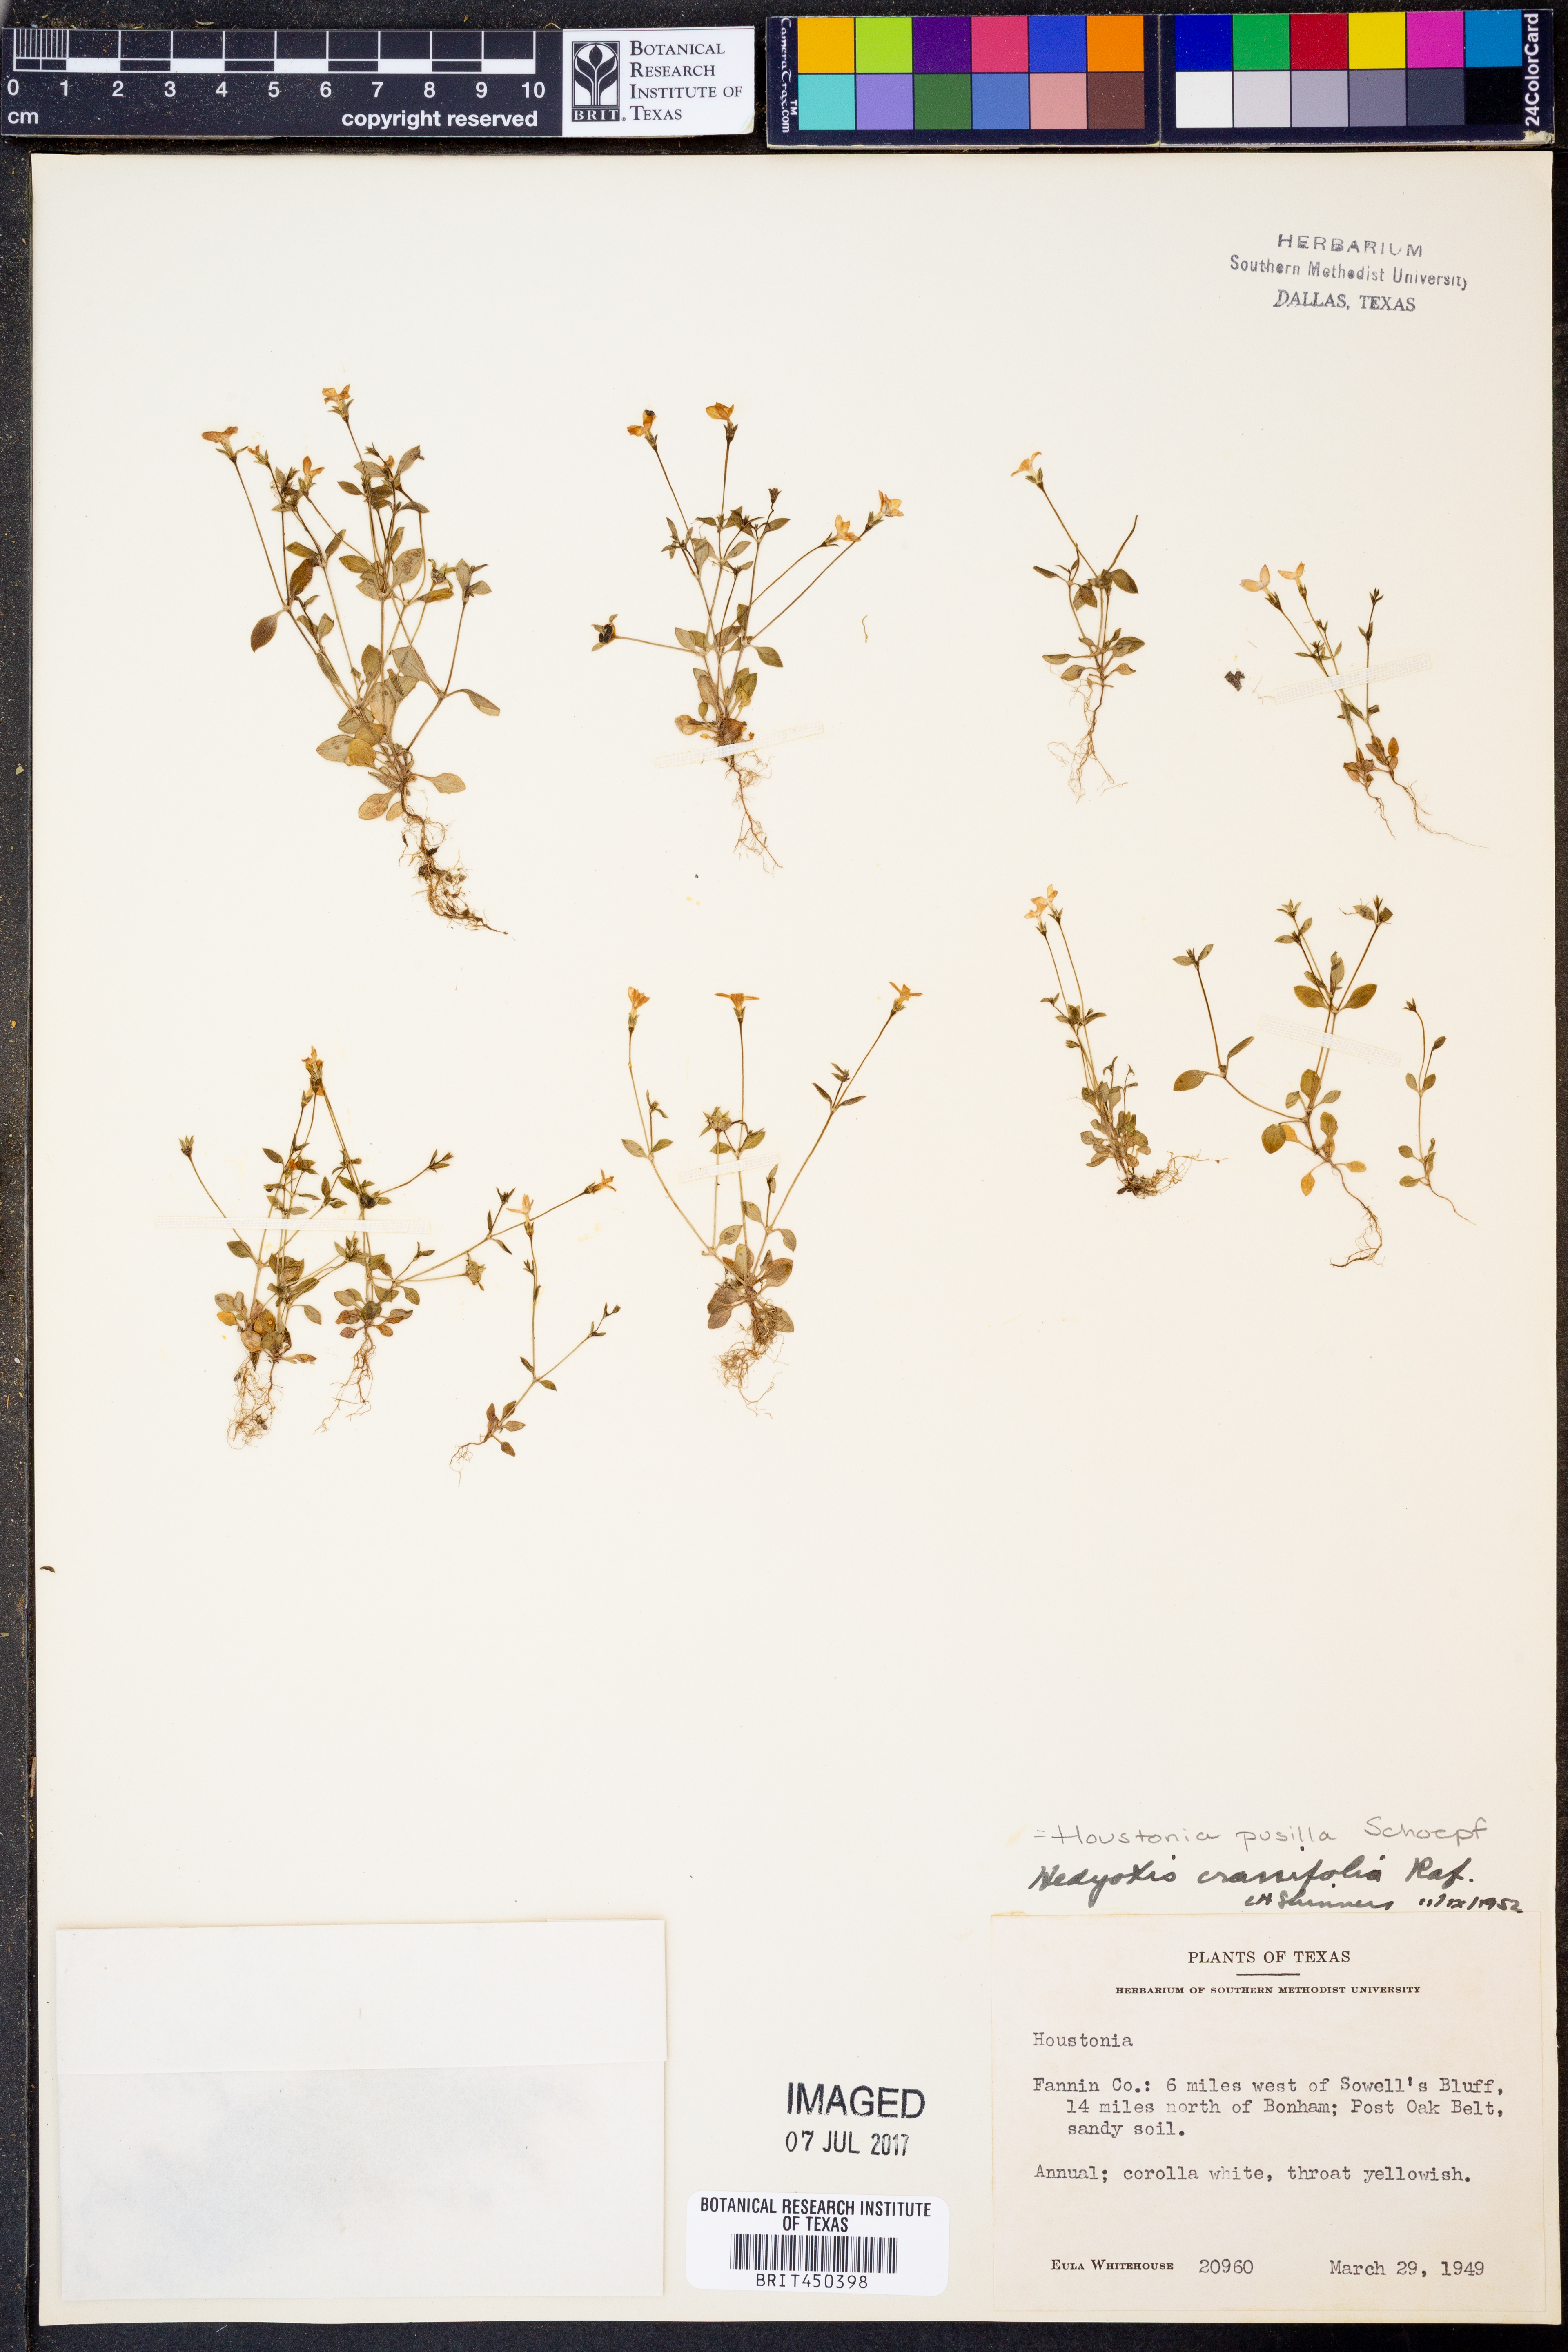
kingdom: Plantae
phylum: Tracheophyta
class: Magnoliopsida
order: Gentianales
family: Rubiaceae
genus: Houstonia
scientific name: Houstonia pusilla
